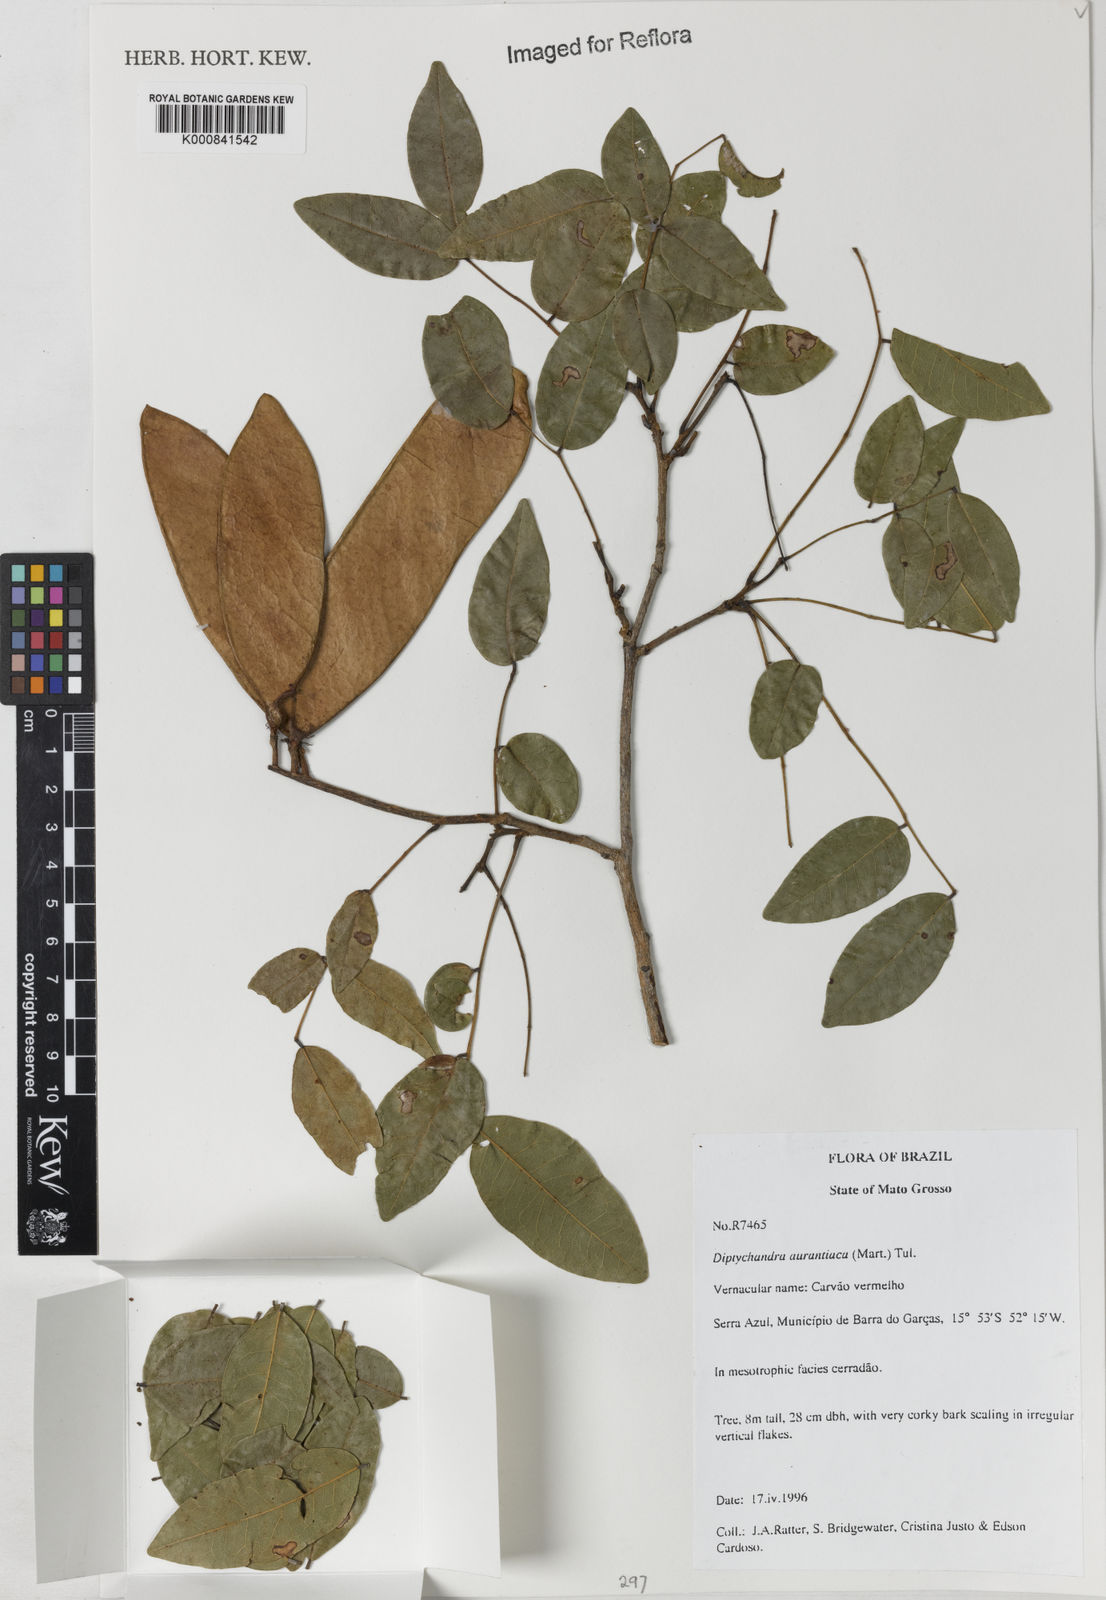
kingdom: Plantae
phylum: Tracheophyta
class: Magnoliopsida
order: Fabales
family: Fabaceae
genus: Diptychandra
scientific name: Diptychandra aurantiaca
